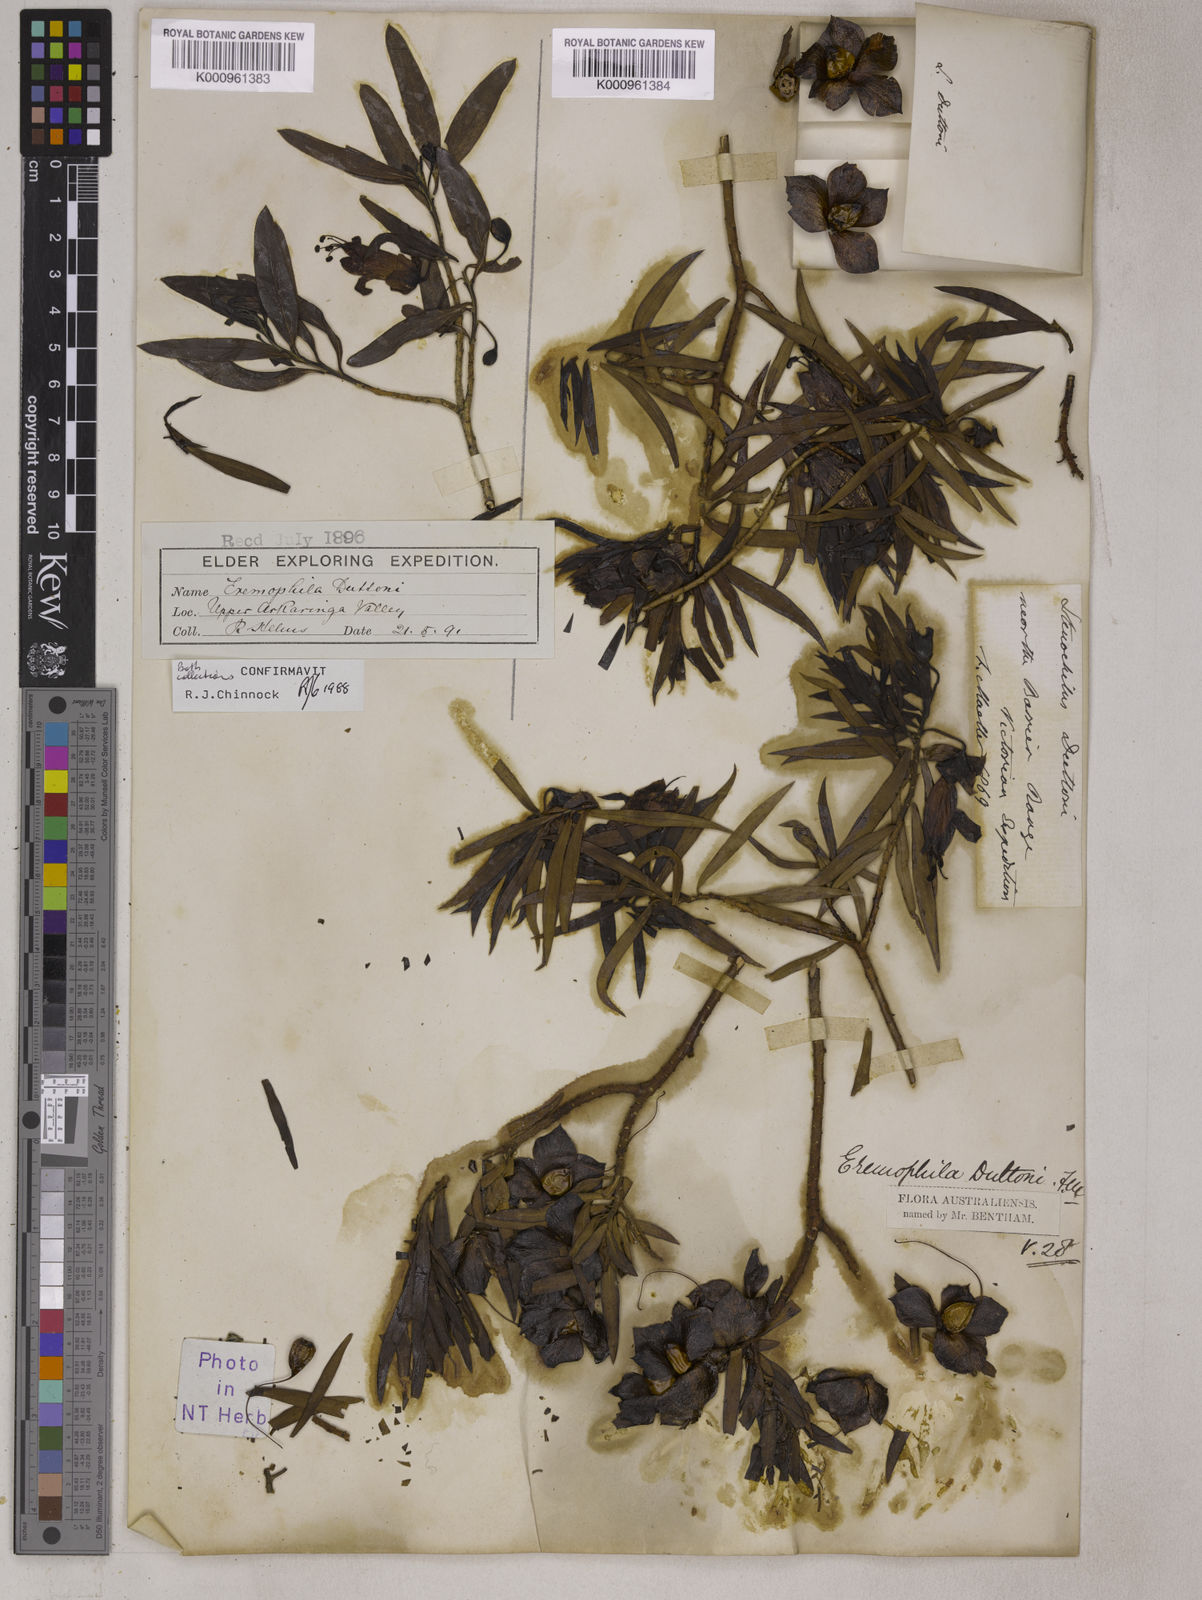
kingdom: Plantae
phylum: Tracheophyta
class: Magnoliopsida
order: Lamiales
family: Scrophulariaceae
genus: Eremophila
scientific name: Eremophila duttonii
